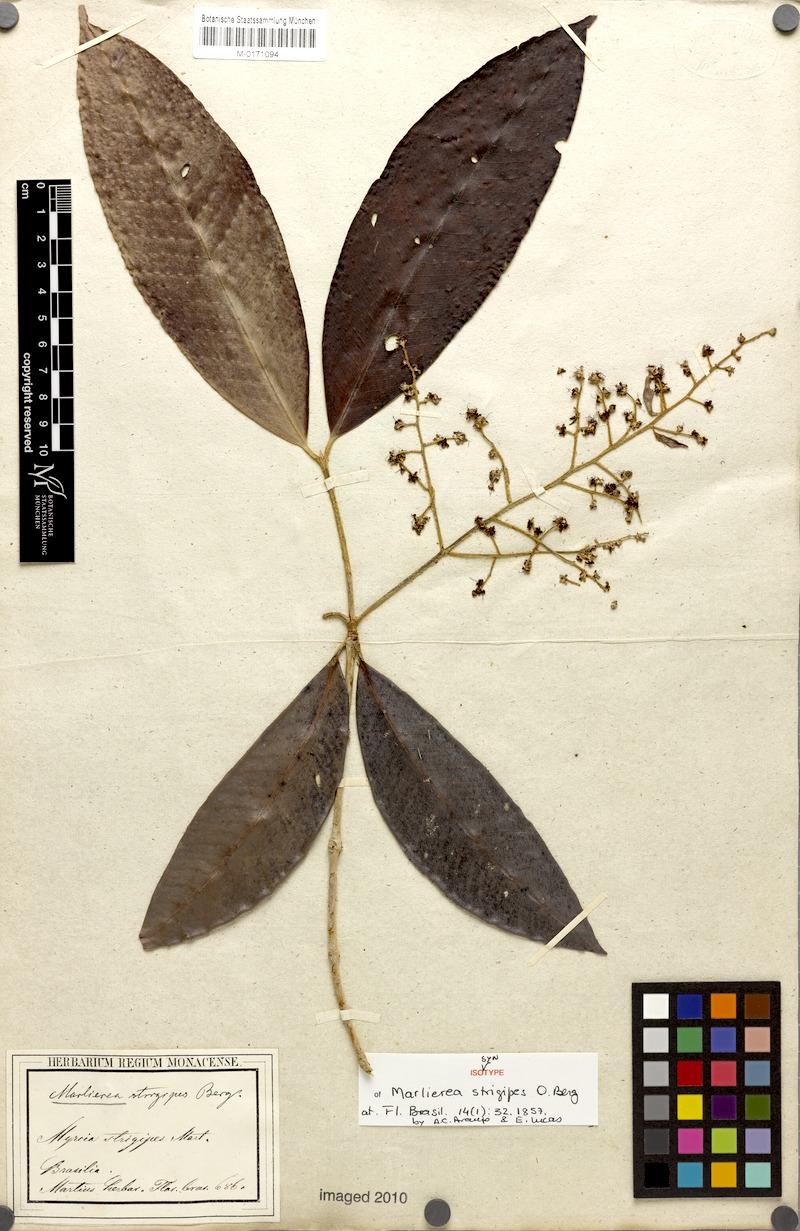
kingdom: Plantae
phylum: Tracheophyta
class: Magnoliopsida
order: Myrtales
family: Myrtaceae
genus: Myrcia
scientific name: Myrcia neotomentosa
